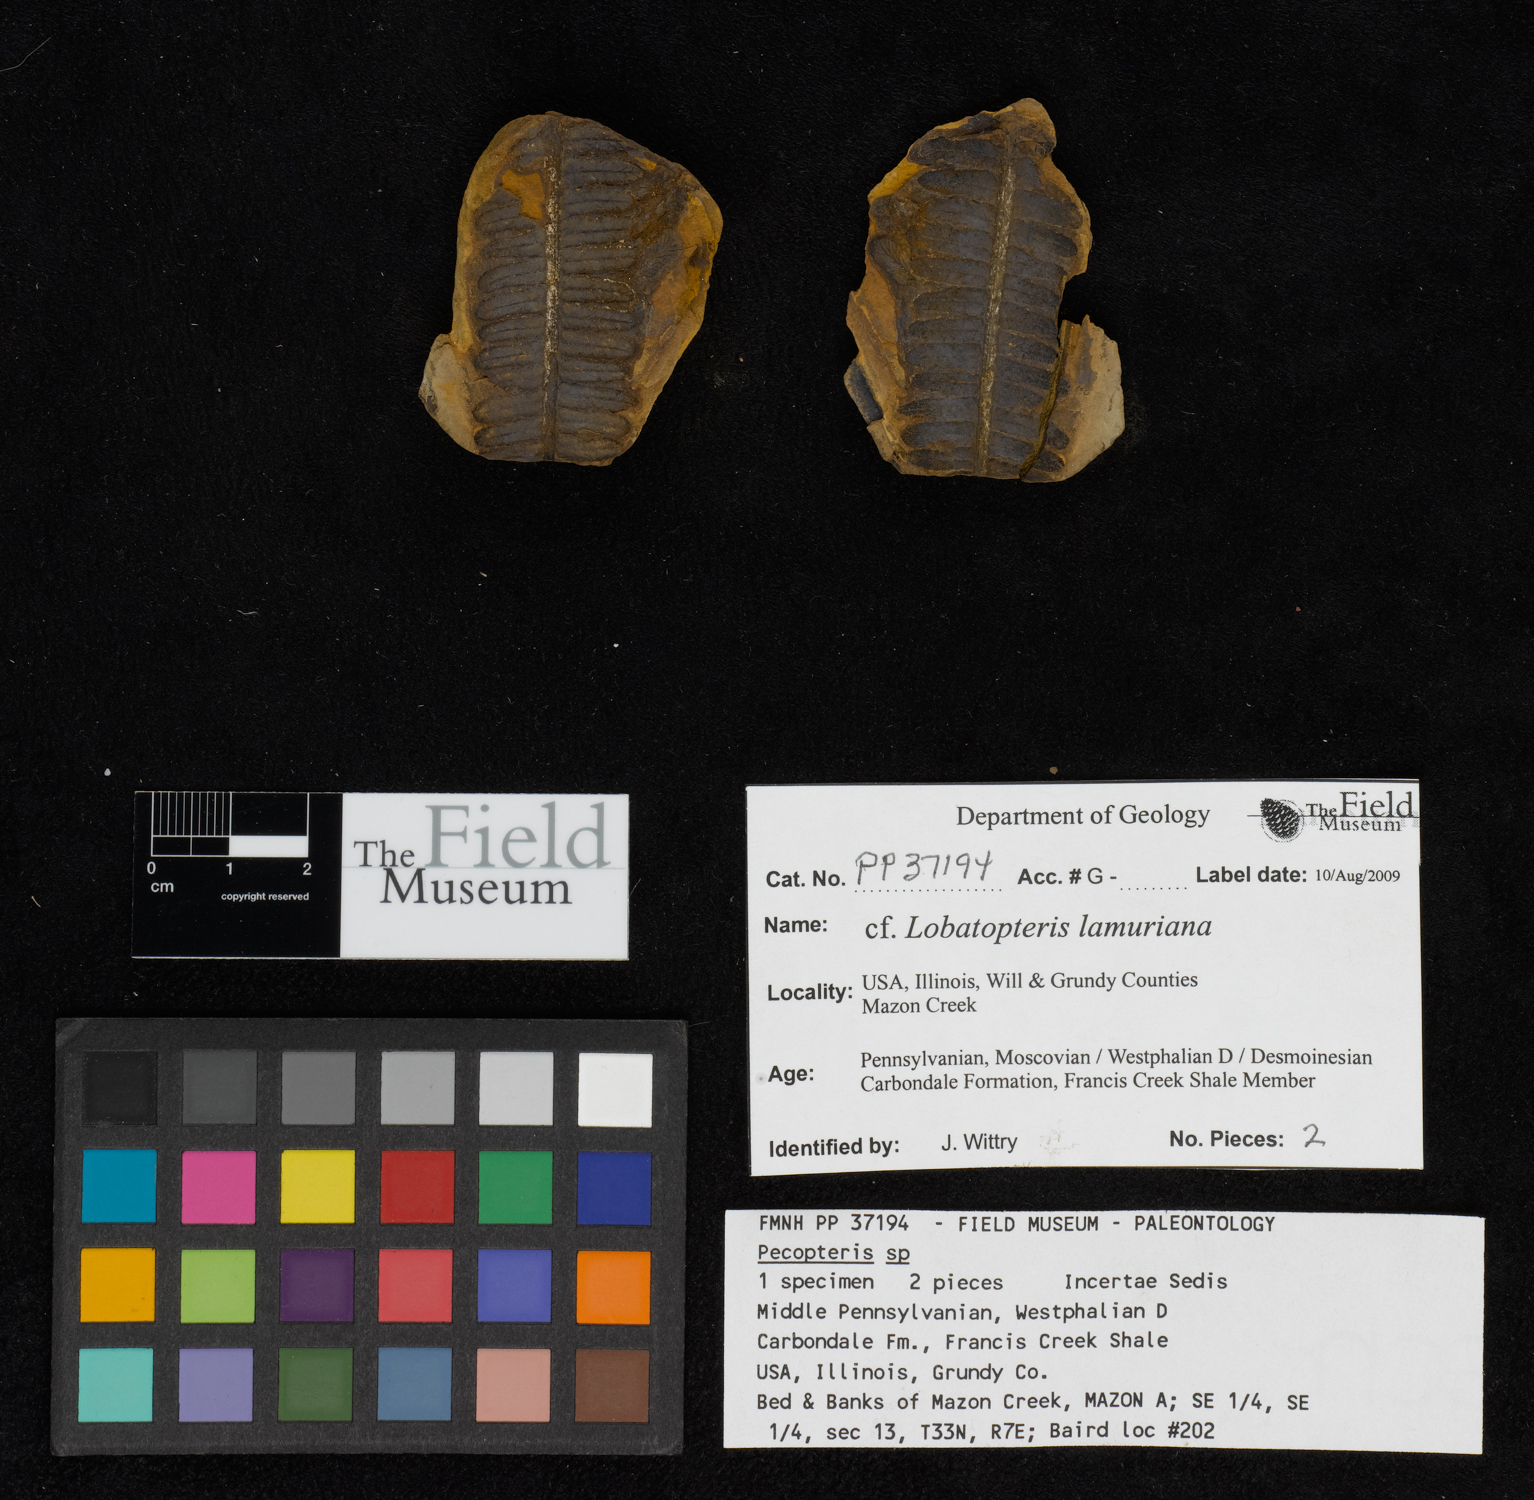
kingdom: Plantae
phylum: Tracheophyta
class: Polypodiopsida
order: Marattiales
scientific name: Marattiales
